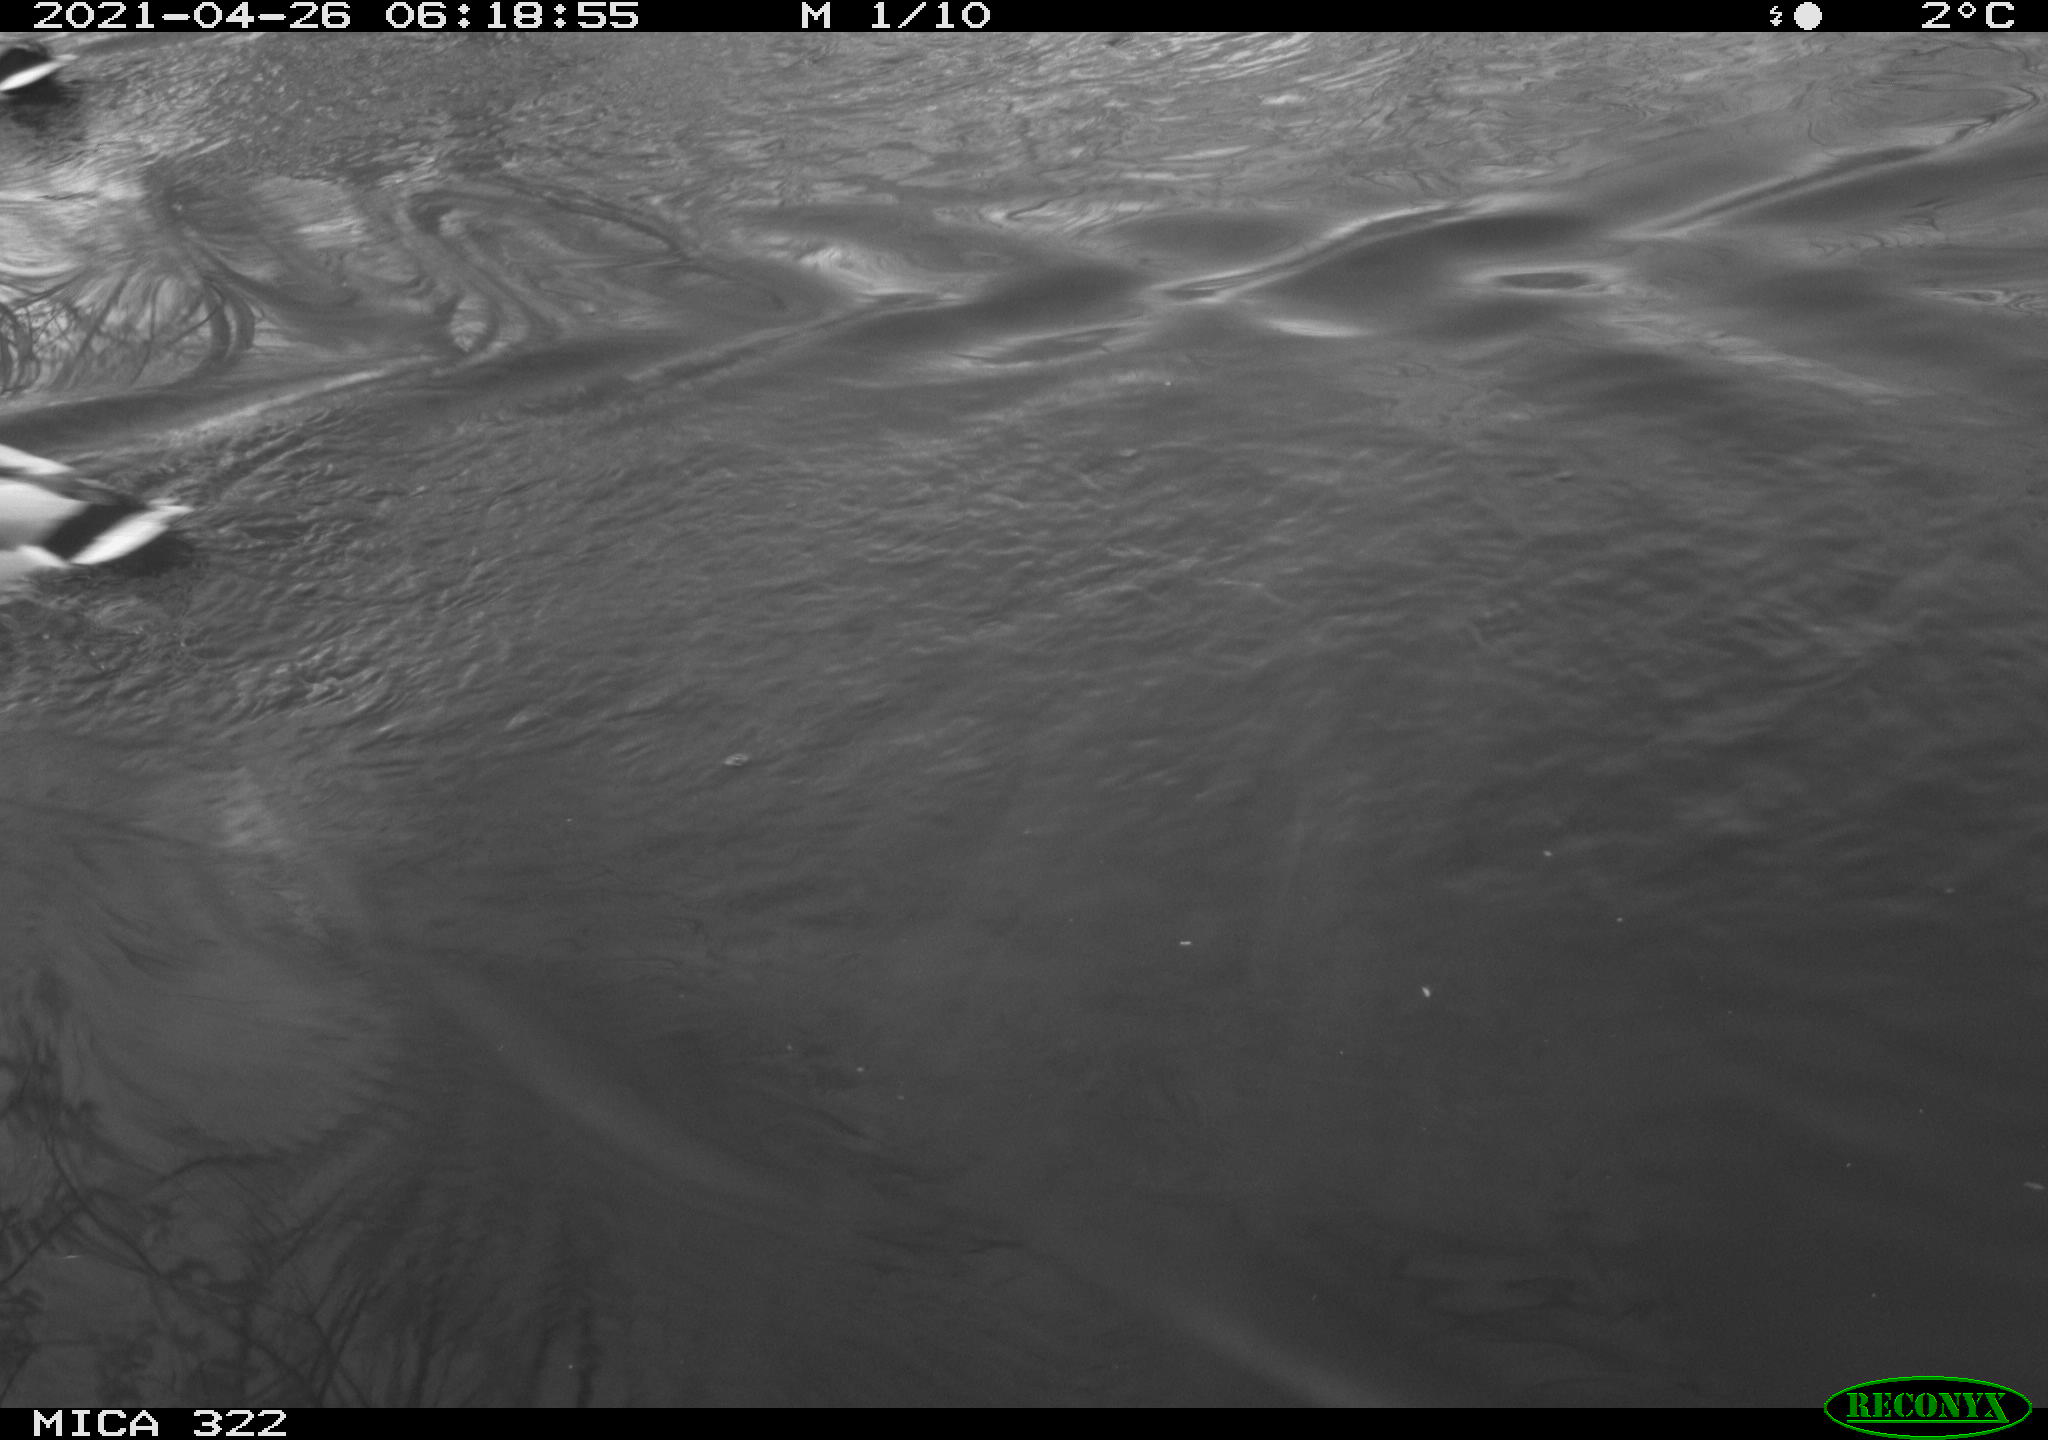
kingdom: Animalia
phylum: Chordata
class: Aves
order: Anseriformes
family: Anatidae
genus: Anas
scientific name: Anas platyrhynchos
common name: Mallard
